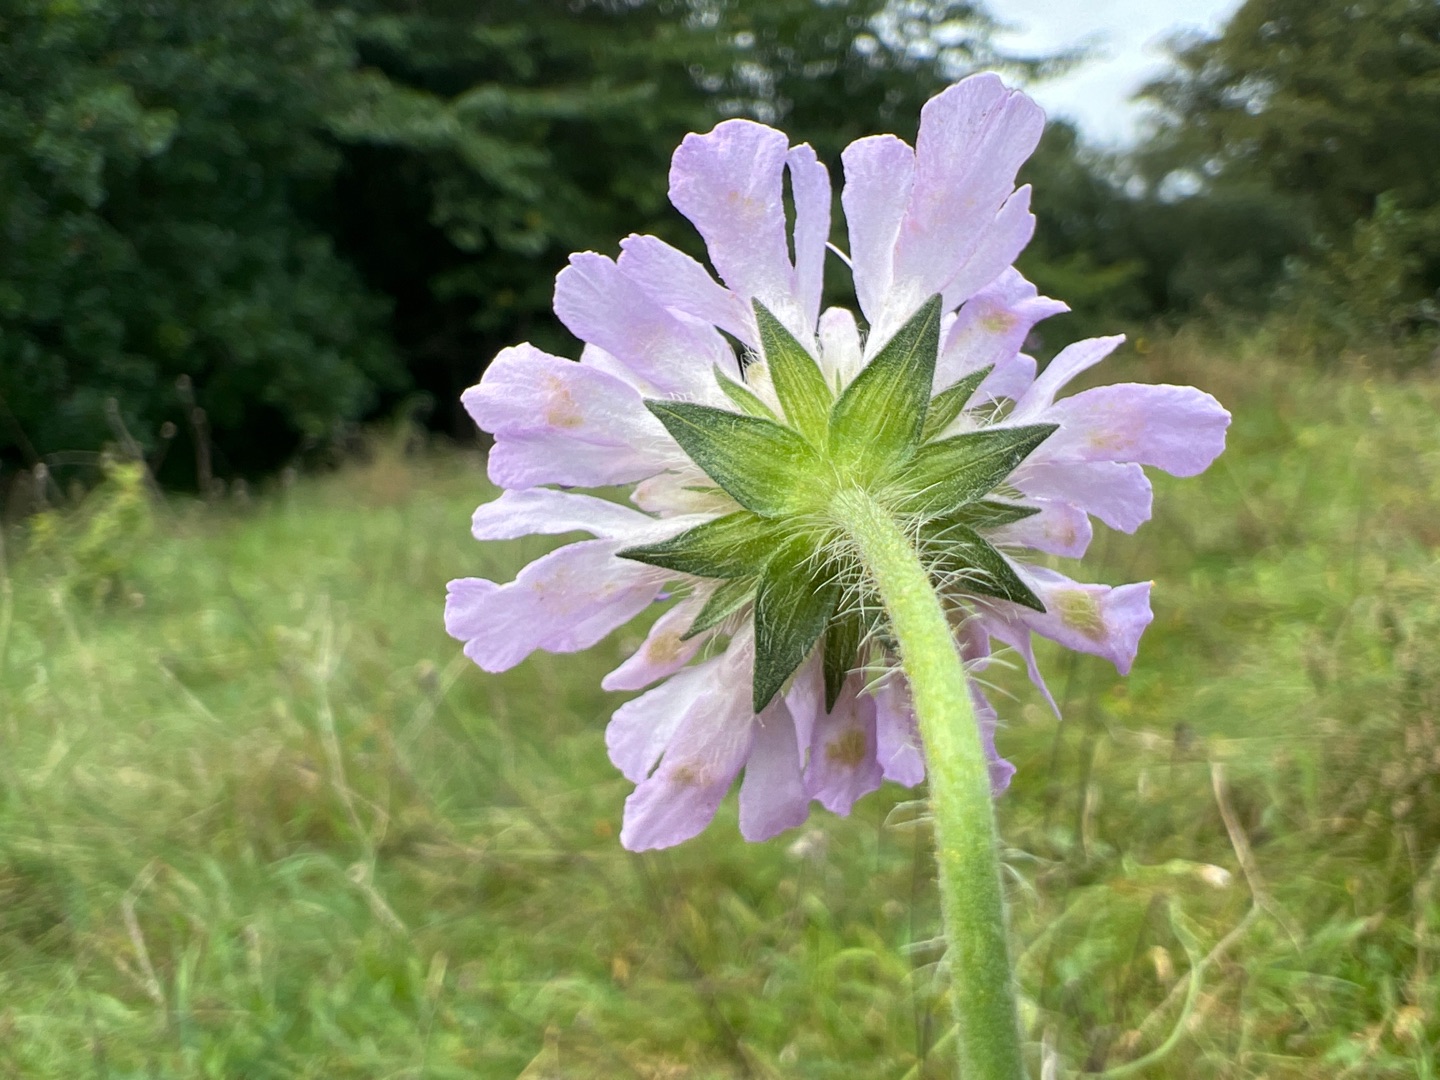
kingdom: Plantae
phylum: Tracheophyta
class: Magnoliopsida
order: Dipsacales
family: Caprifoliaceae
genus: Knautia
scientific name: Knautia arvensis
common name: Blåhat
